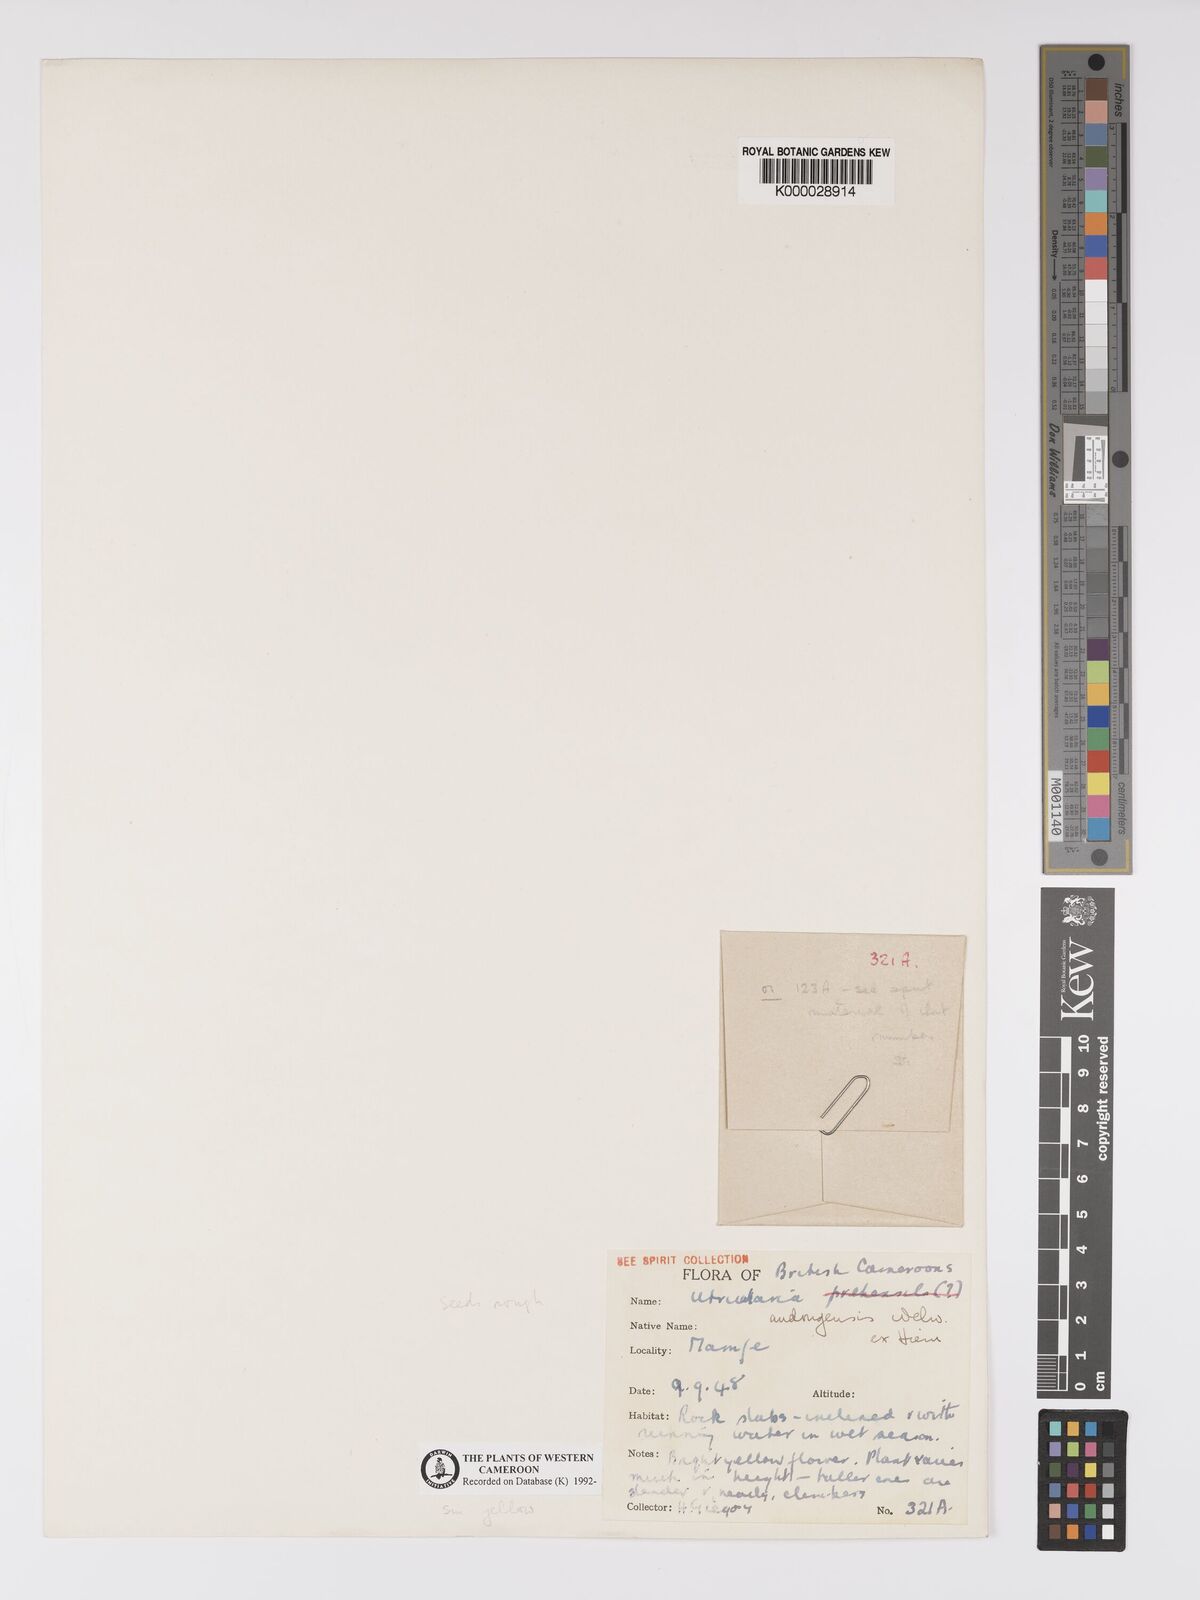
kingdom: Plantae
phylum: Tracheophyta
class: Magnoliopsida
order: Lamiales
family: Lentibulariaceae
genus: Utricularia
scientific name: Utricularia andongensis
